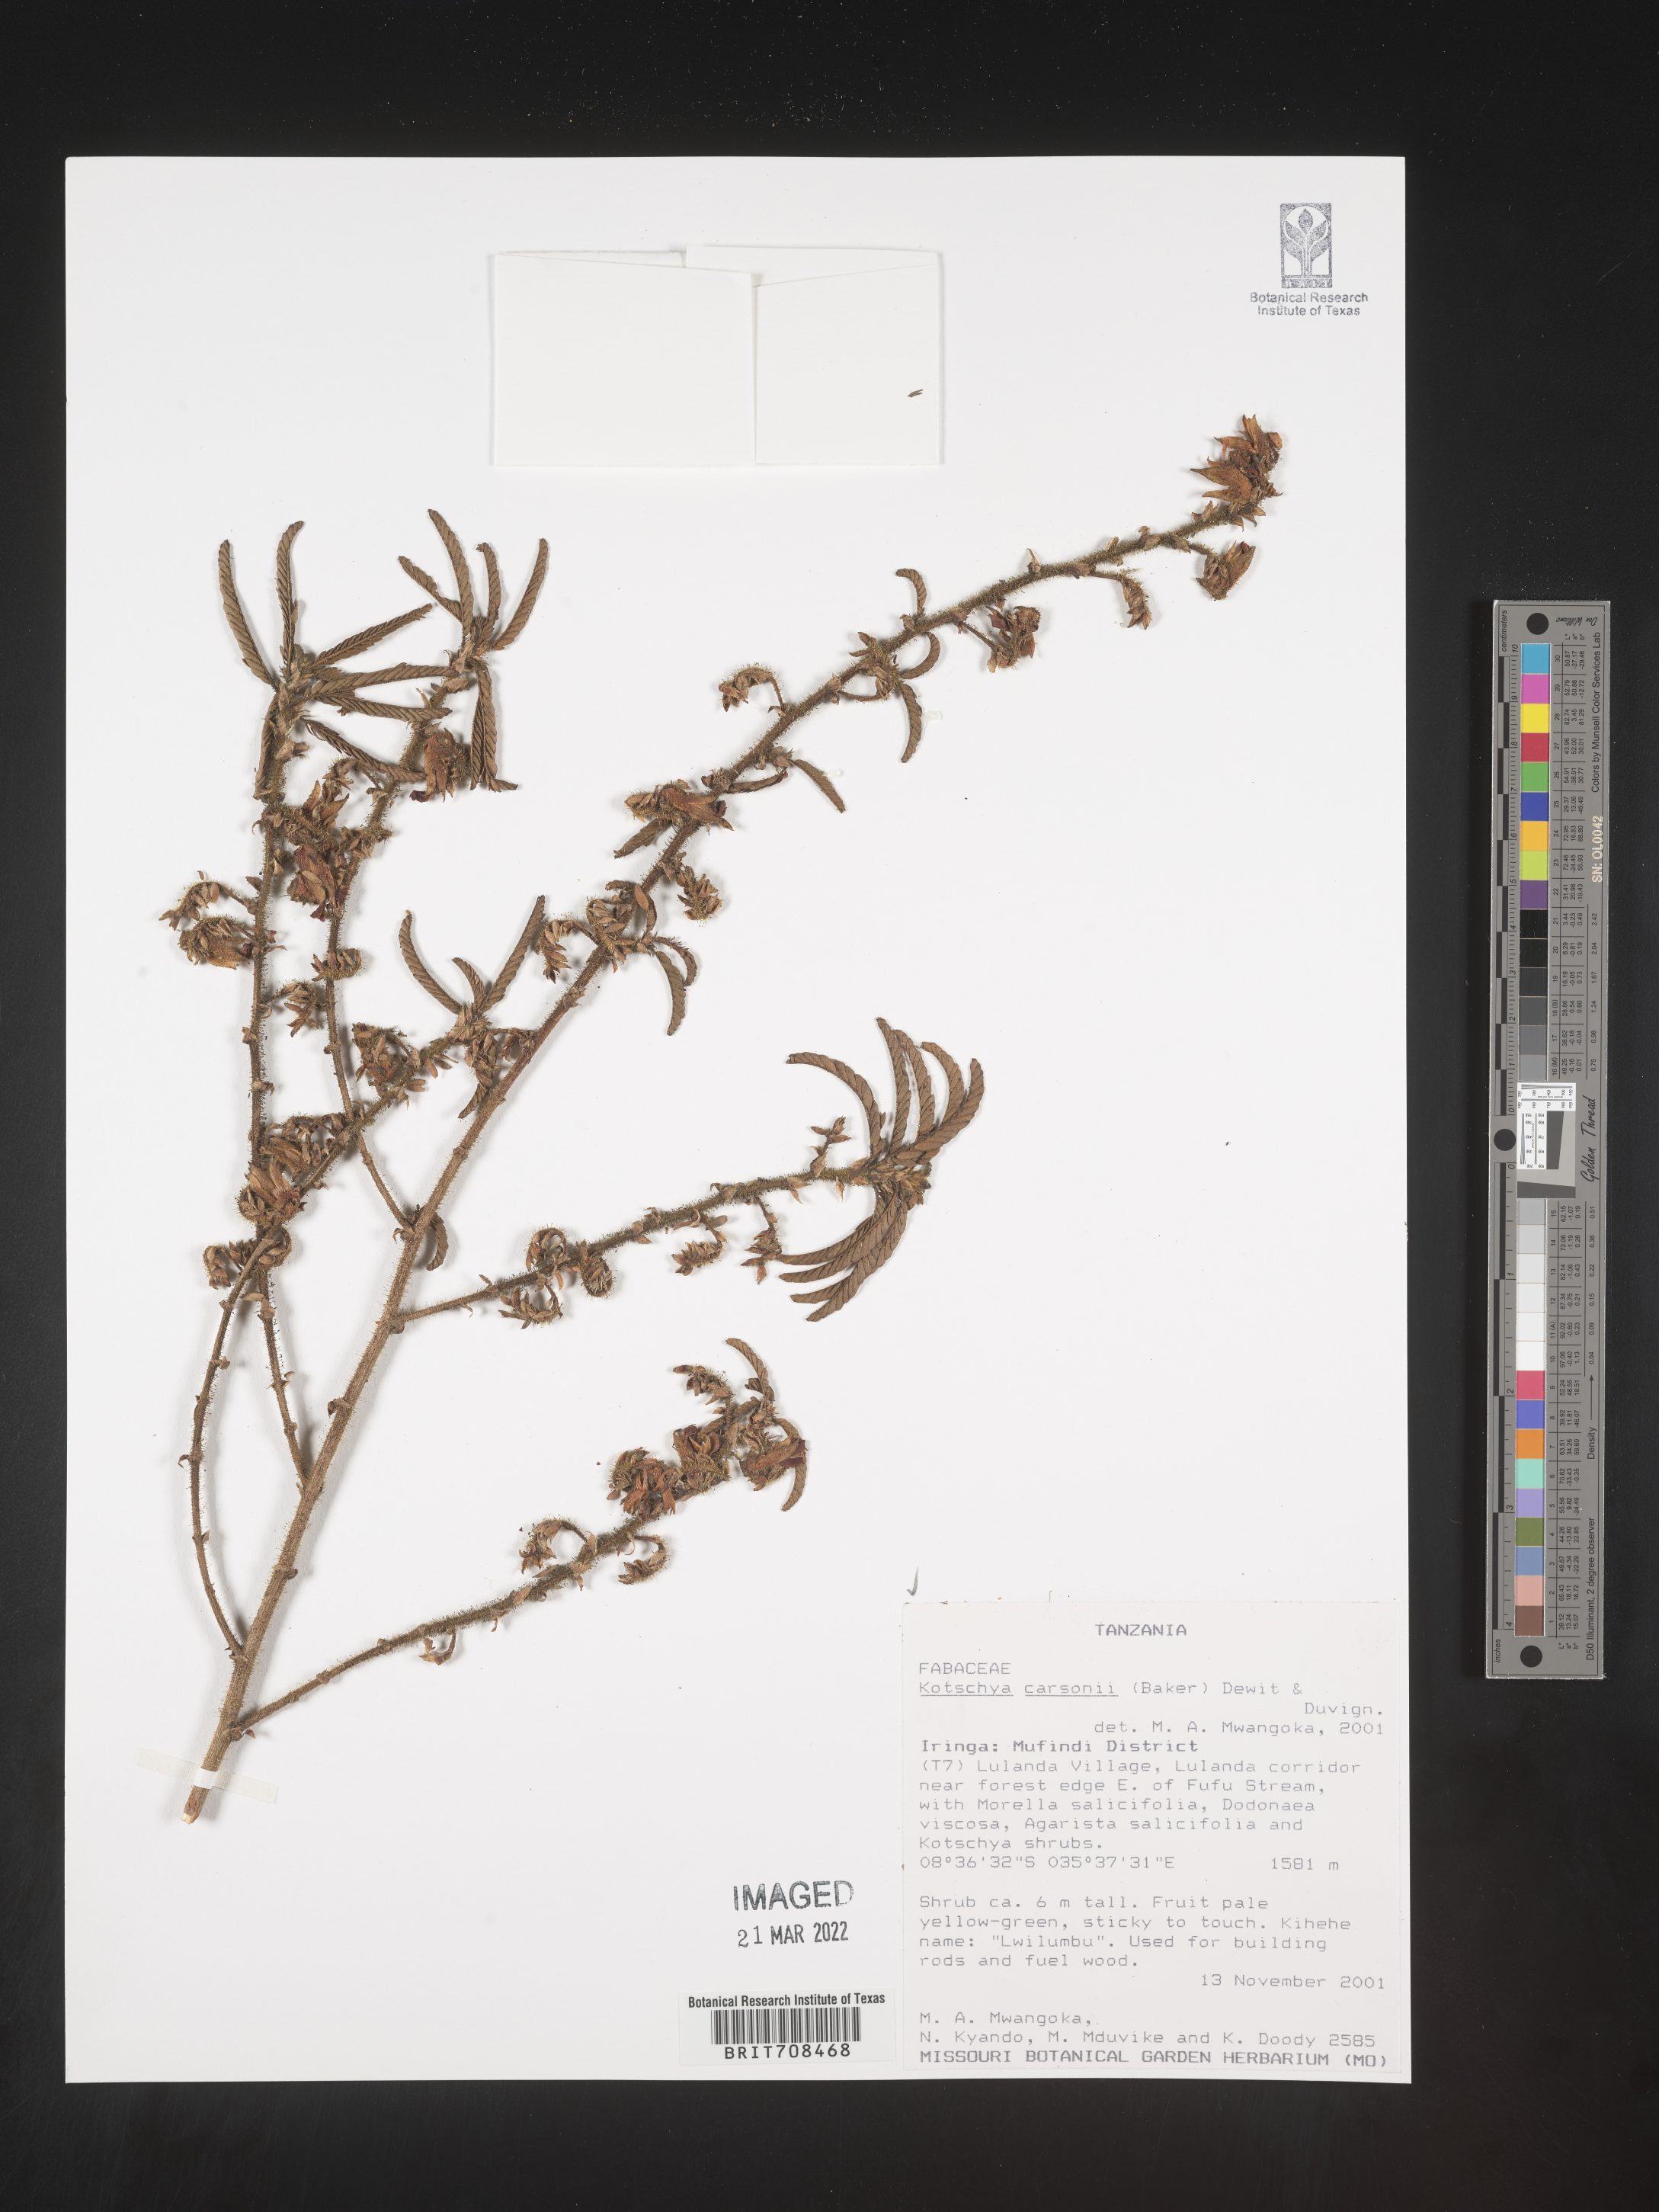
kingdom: Plantae
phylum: Tracheophyta
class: Magnoliopsida
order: Fabales
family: Fabaceae
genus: Kotschya
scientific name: Kotschya
